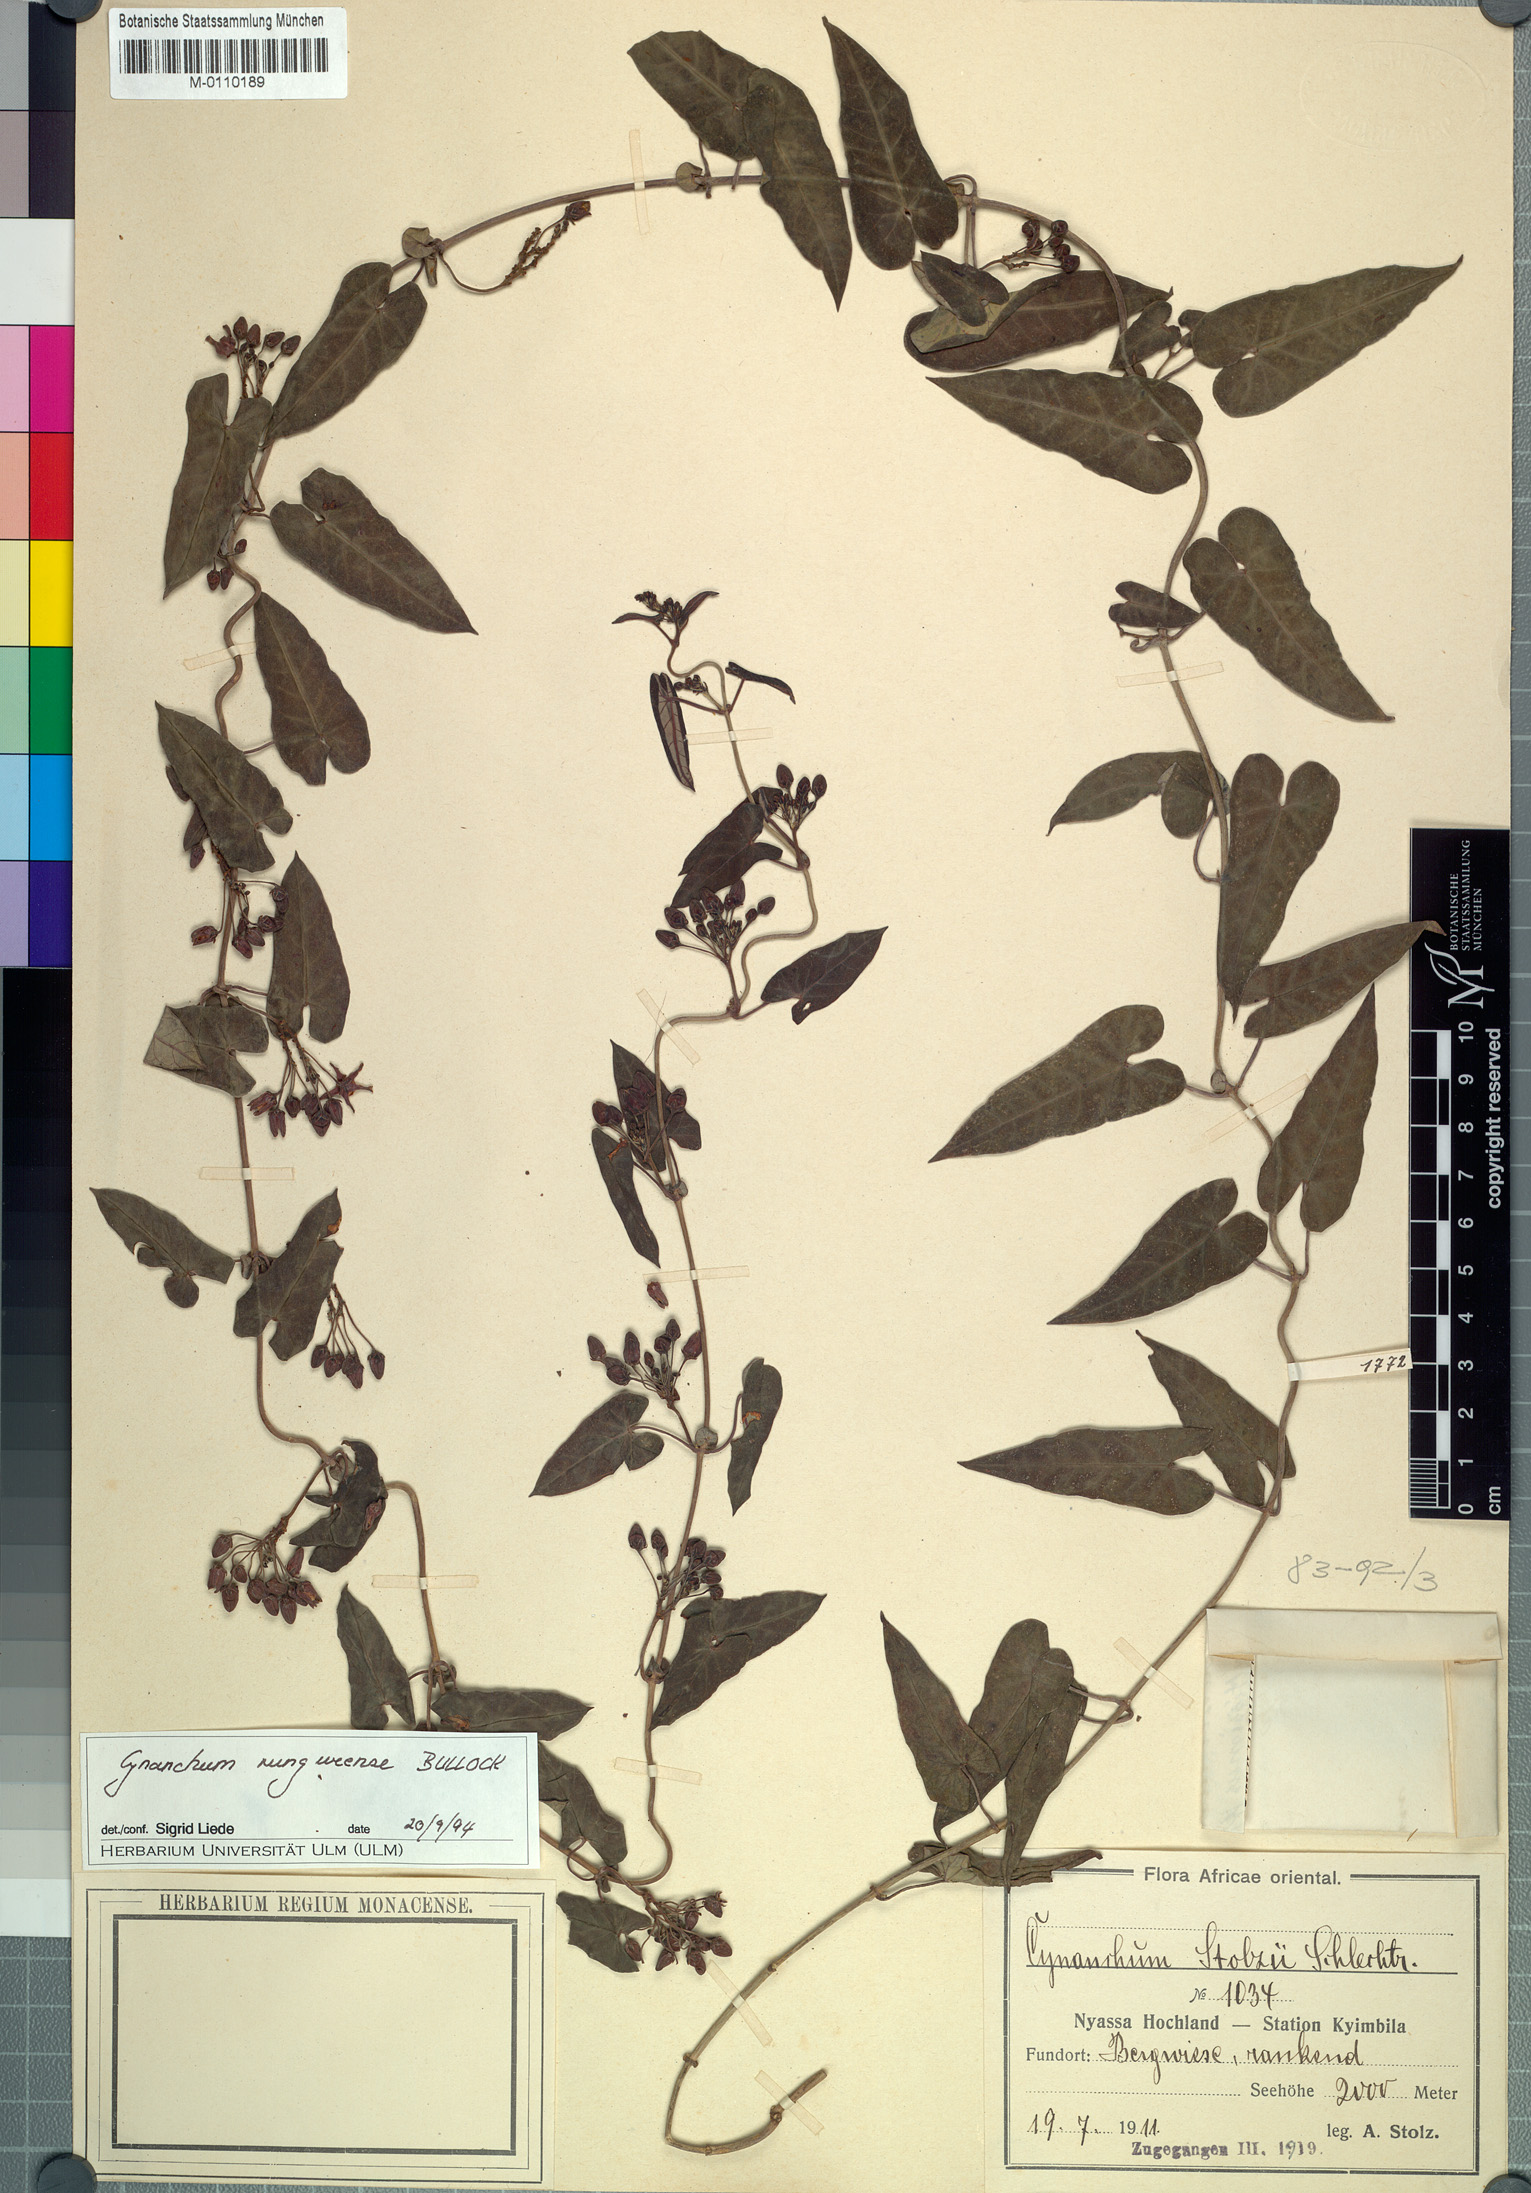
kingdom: Plantae
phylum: Tracheophyta
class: Magnoliopsida
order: Gentianales
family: Apocynaceae
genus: Cynanchum
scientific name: Cynanchum rungweense
